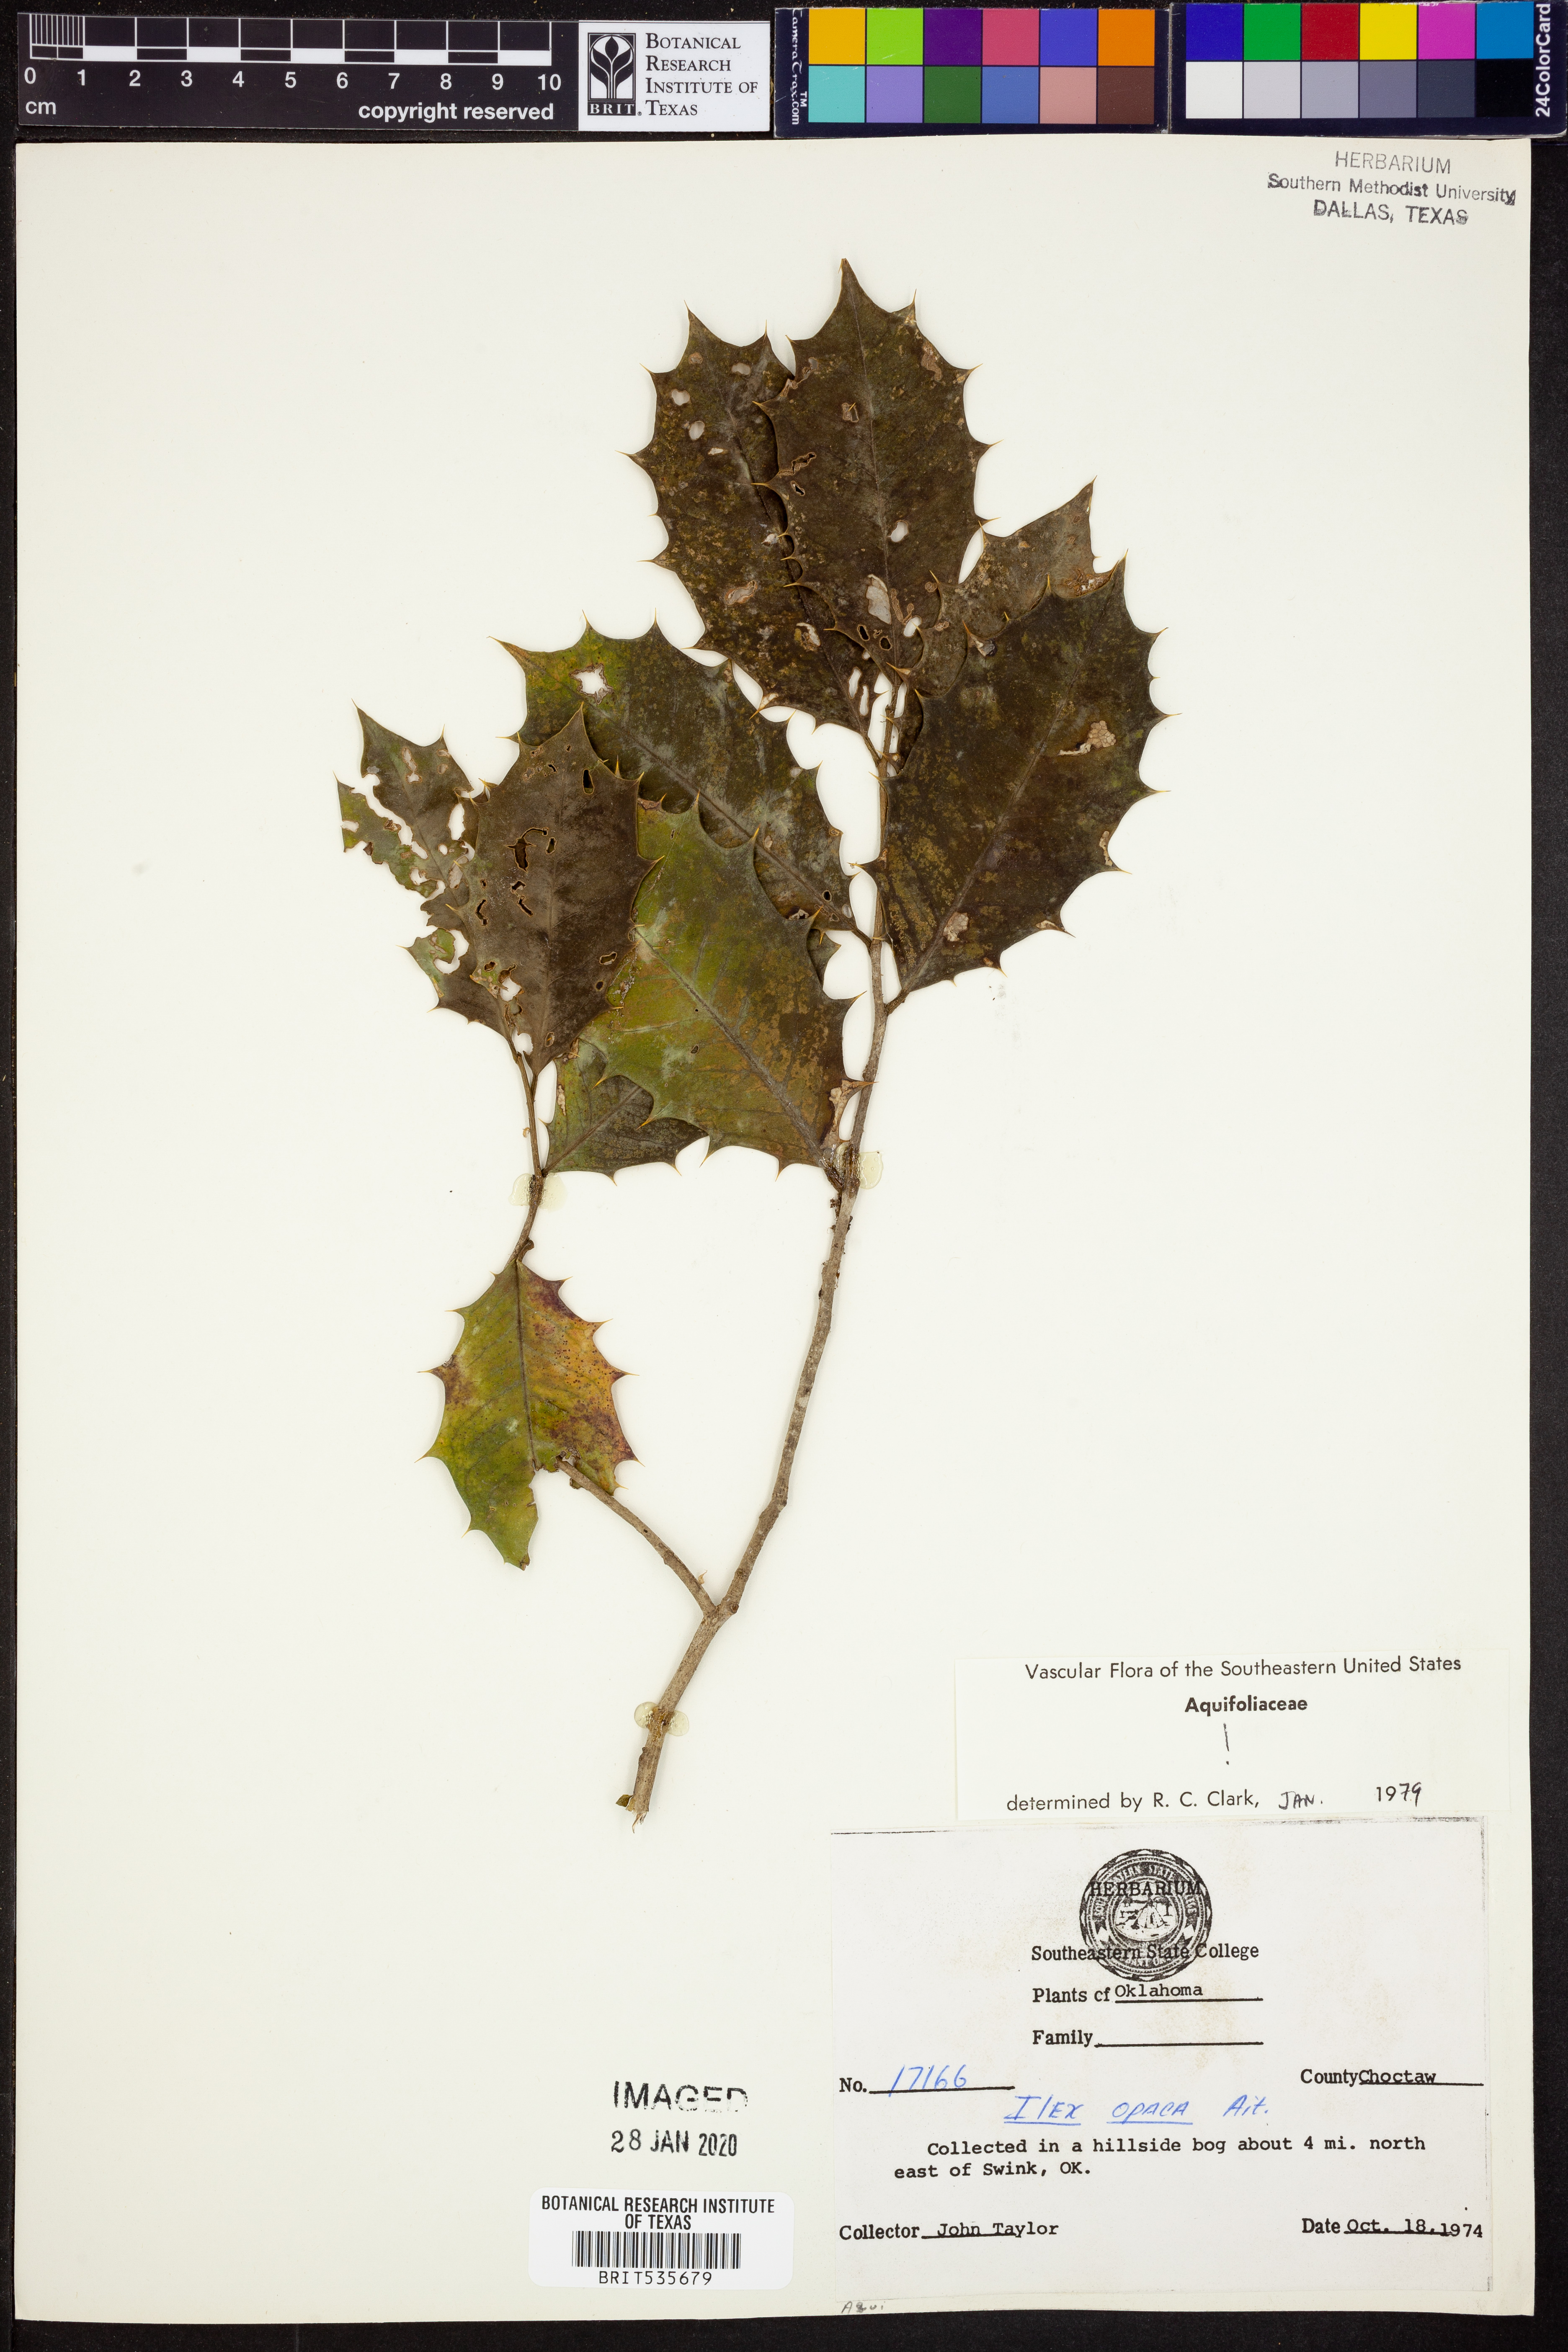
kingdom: Plantae
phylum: Tracheophyta
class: Magnoliopsida
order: Aquifoliales
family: Aquifoliaceae
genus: Ilex
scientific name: Ilex opaca
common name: American holly
